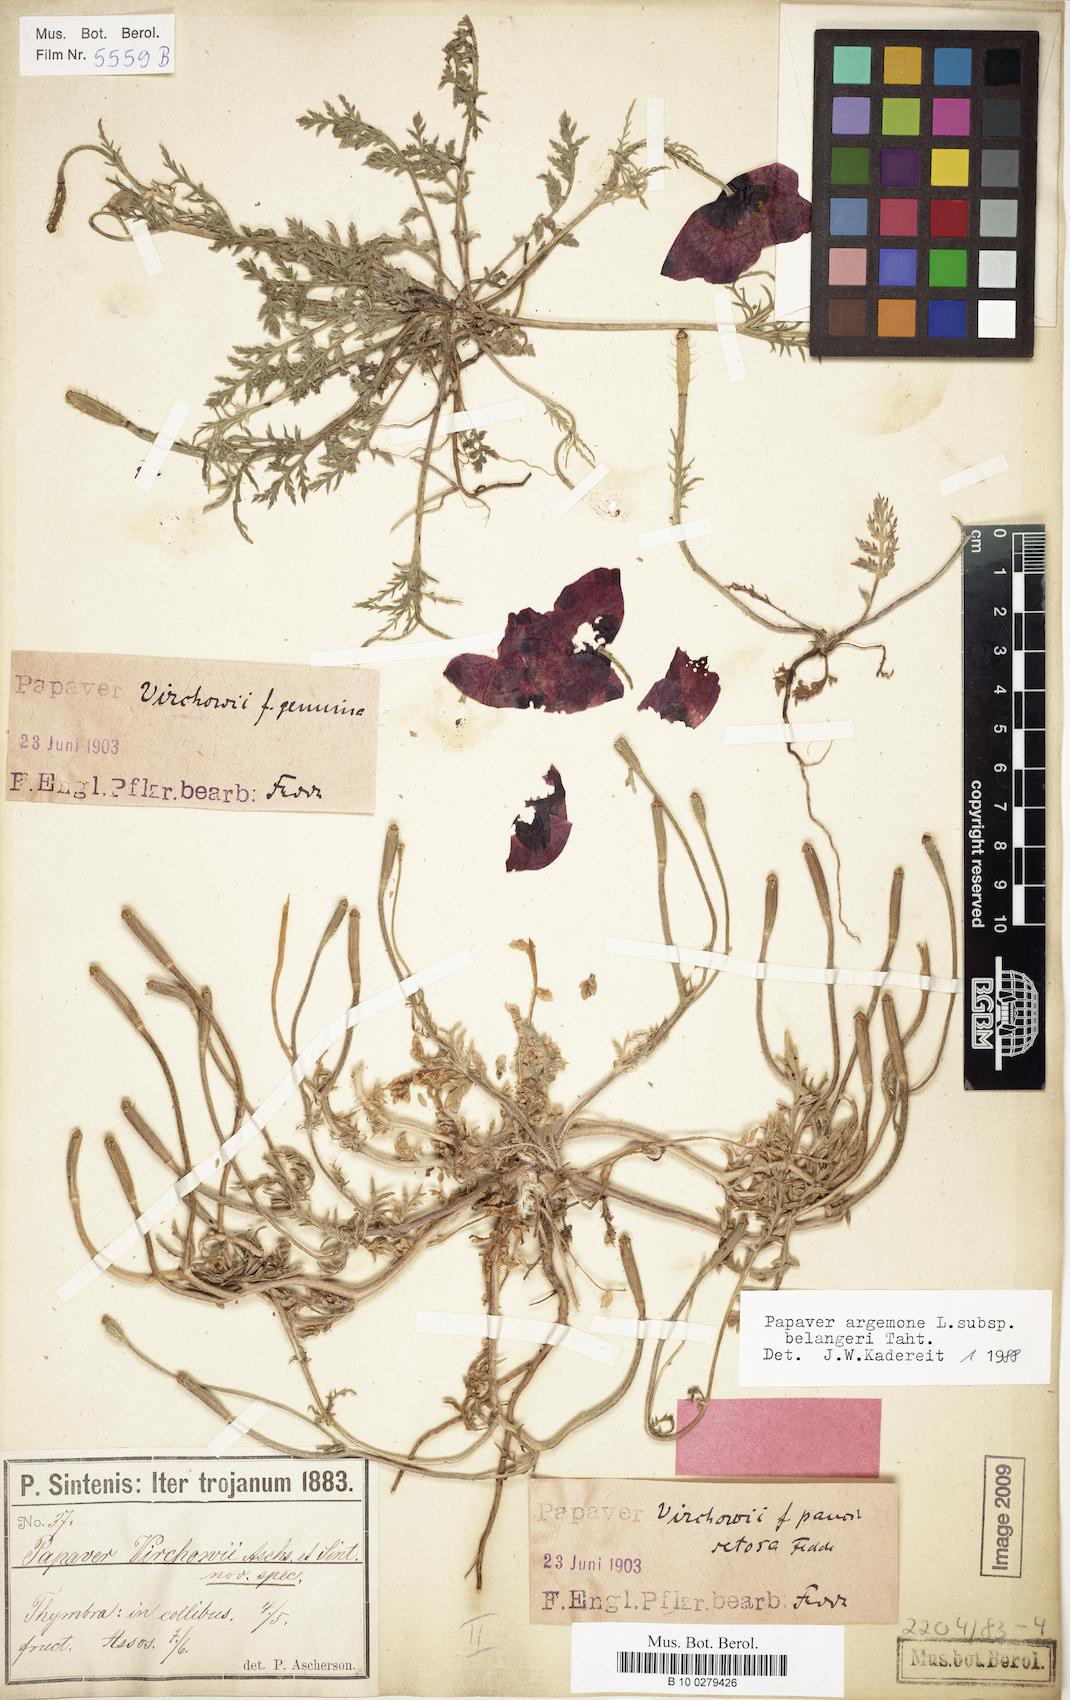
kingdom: Plantae
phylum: Tracheophyta
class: Magnoliopsida
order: Ranunculales
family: Papaveraceae
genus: Roemeria
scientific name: Roemeria minor
